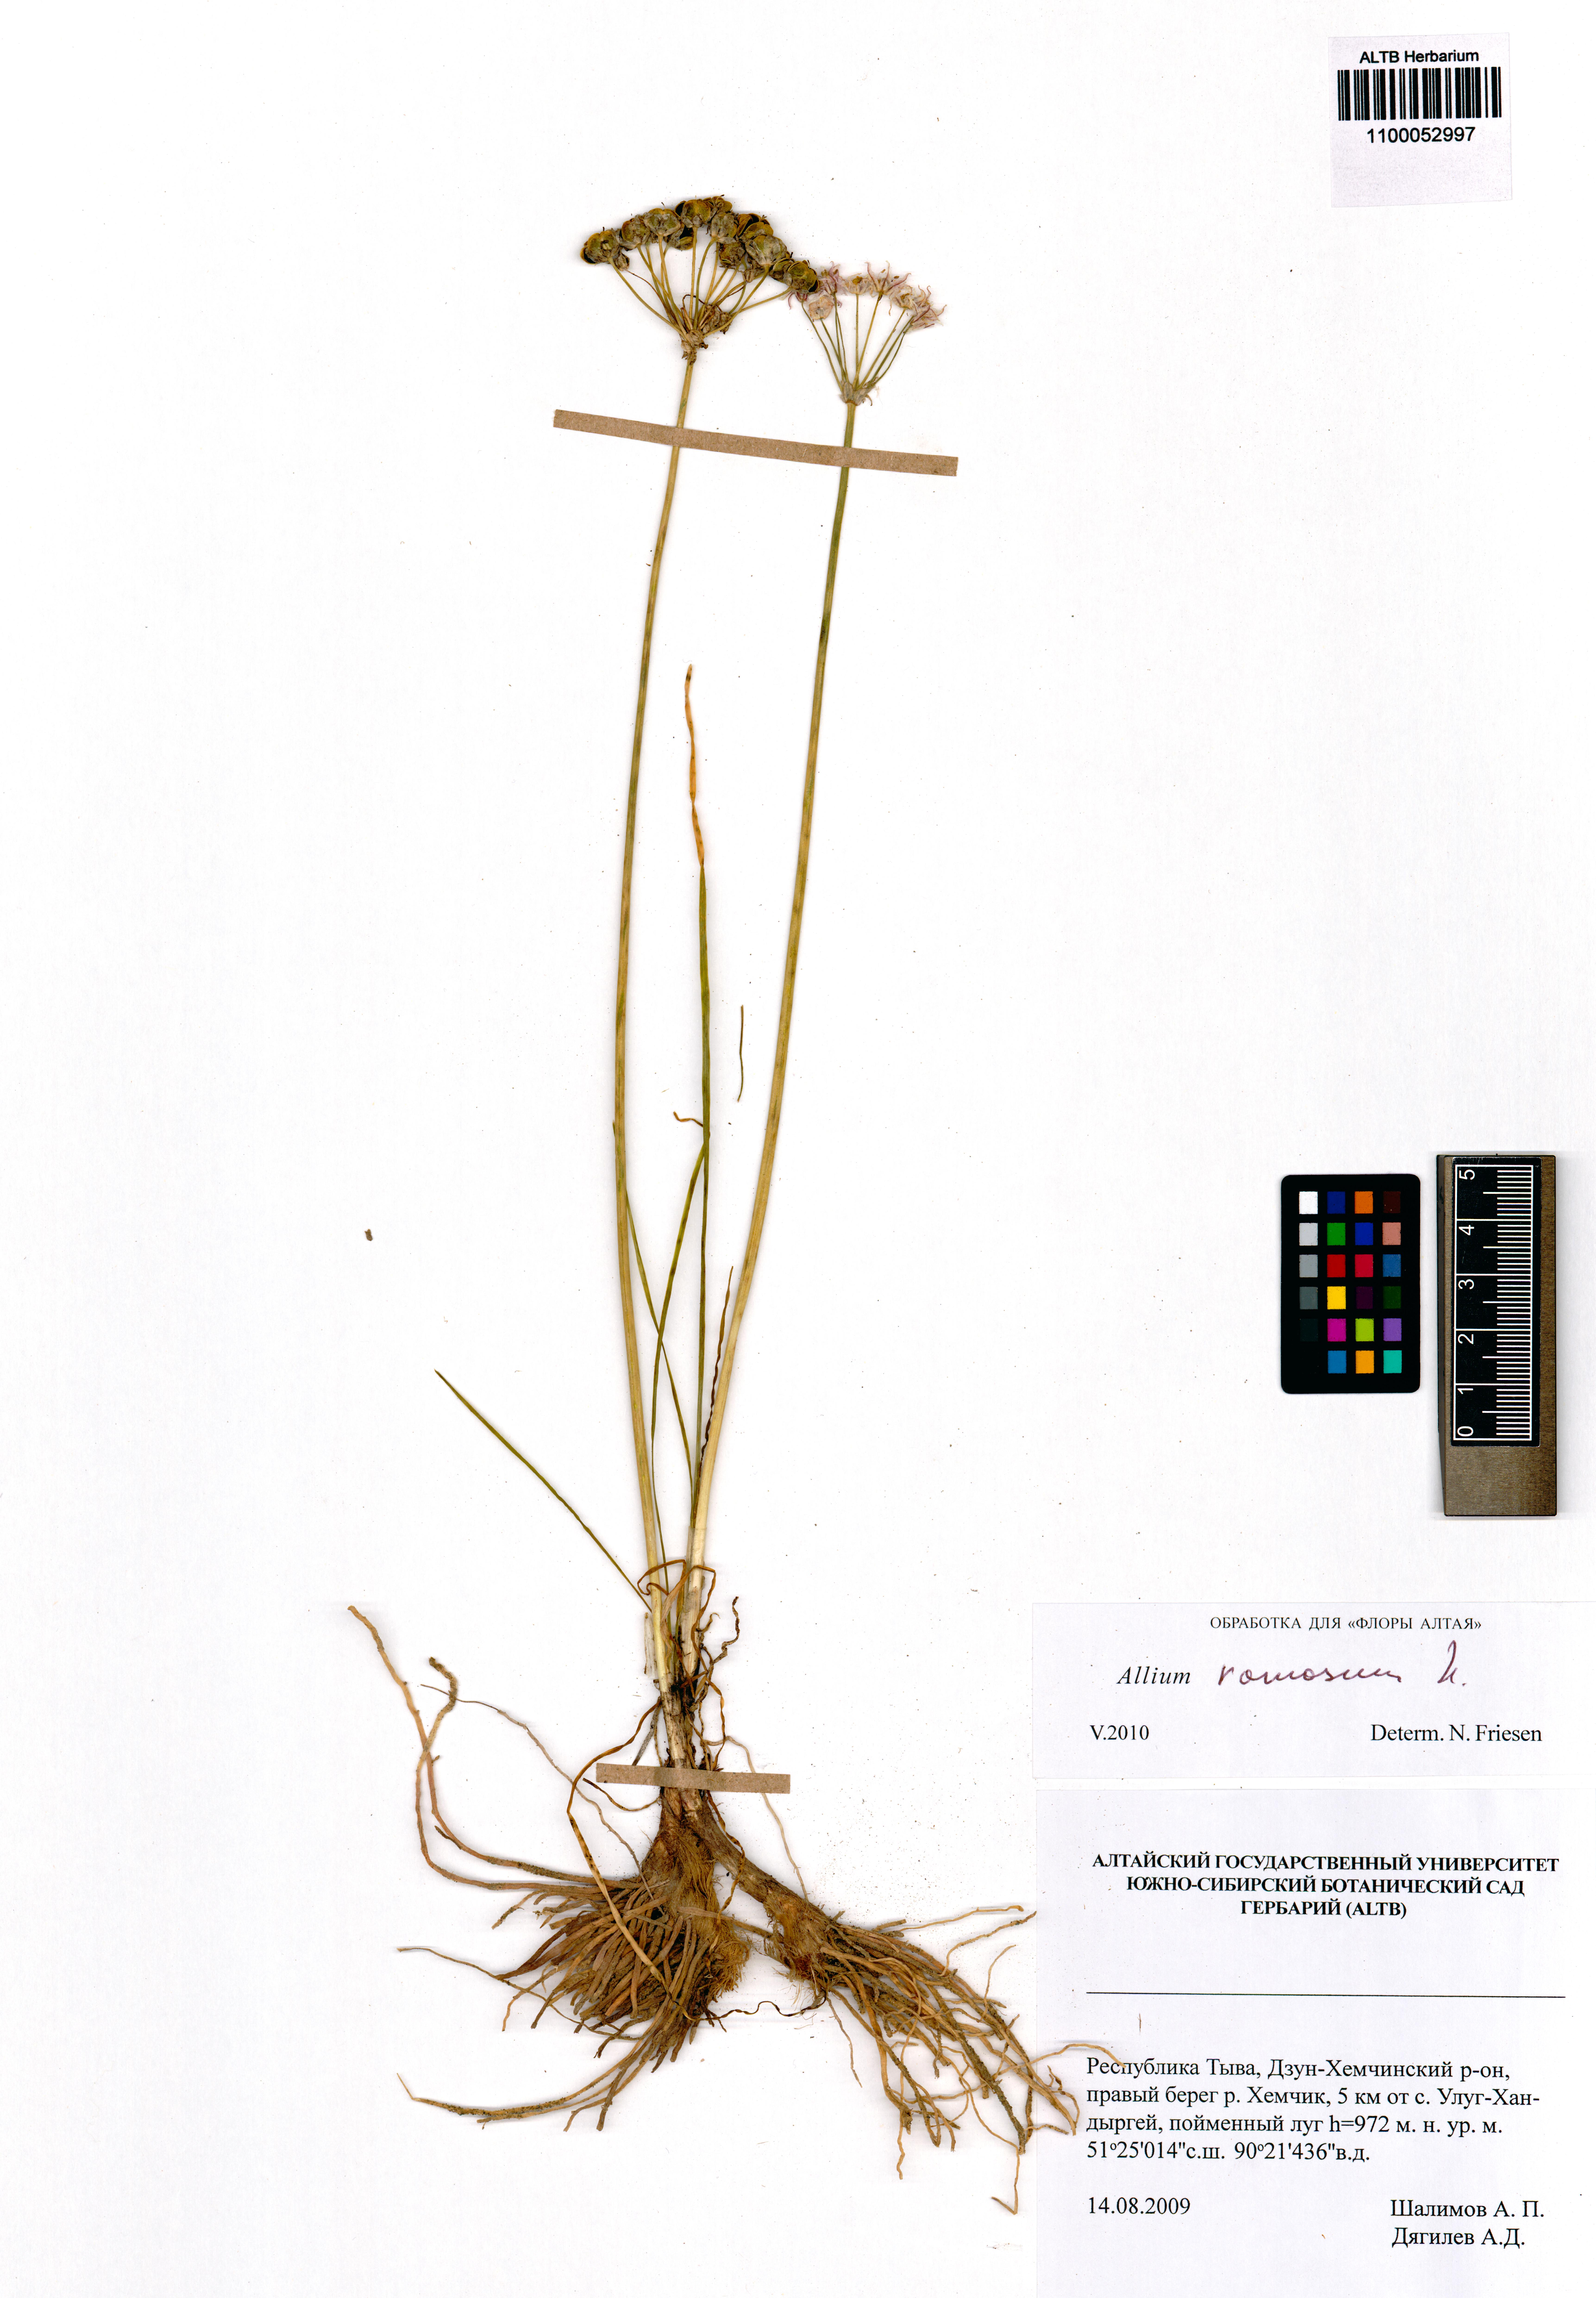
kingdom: Plantae
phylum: Tracheophyta
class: Liliopsida
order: Asparagales
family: Amaryllidaceae
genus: Allium
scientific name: Allium ramosum
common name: Fragrant garlic
